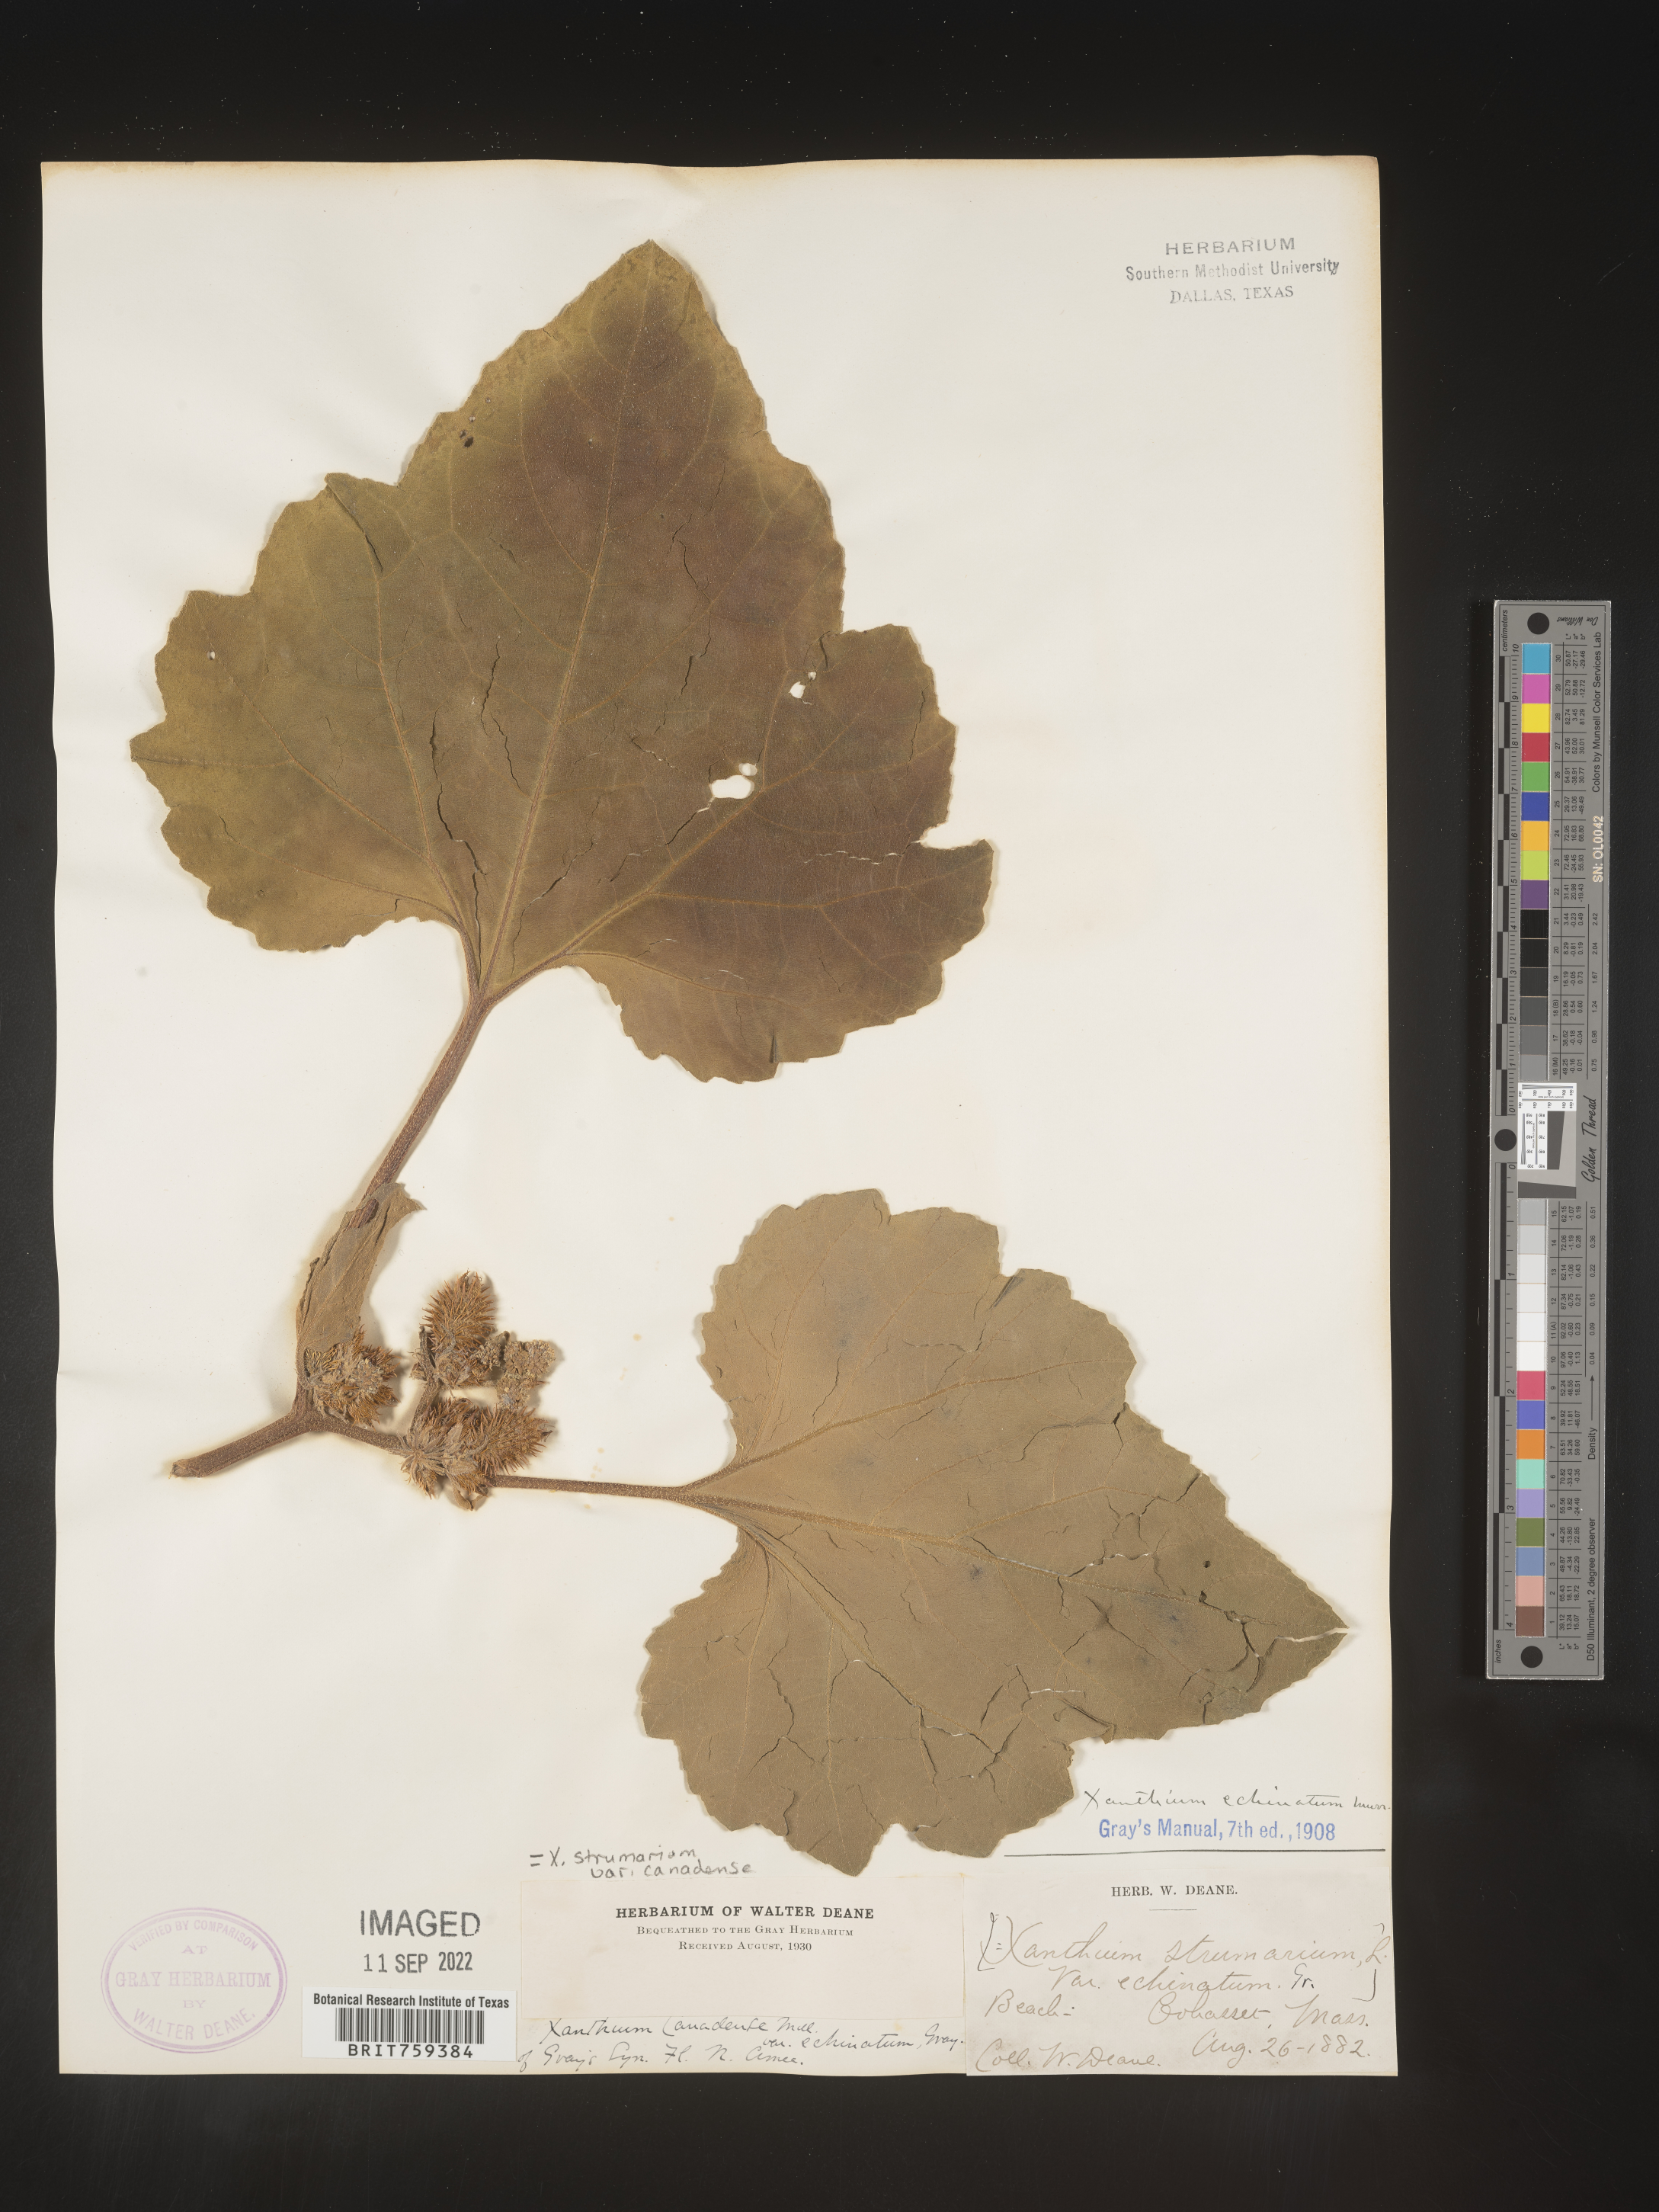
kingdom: Plantae
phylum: Tracheophyta
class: Magnoliopsida
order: Asterales
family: Asteraceae
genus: Xanthium
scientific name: Xanthium orientale
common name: Californian burr
